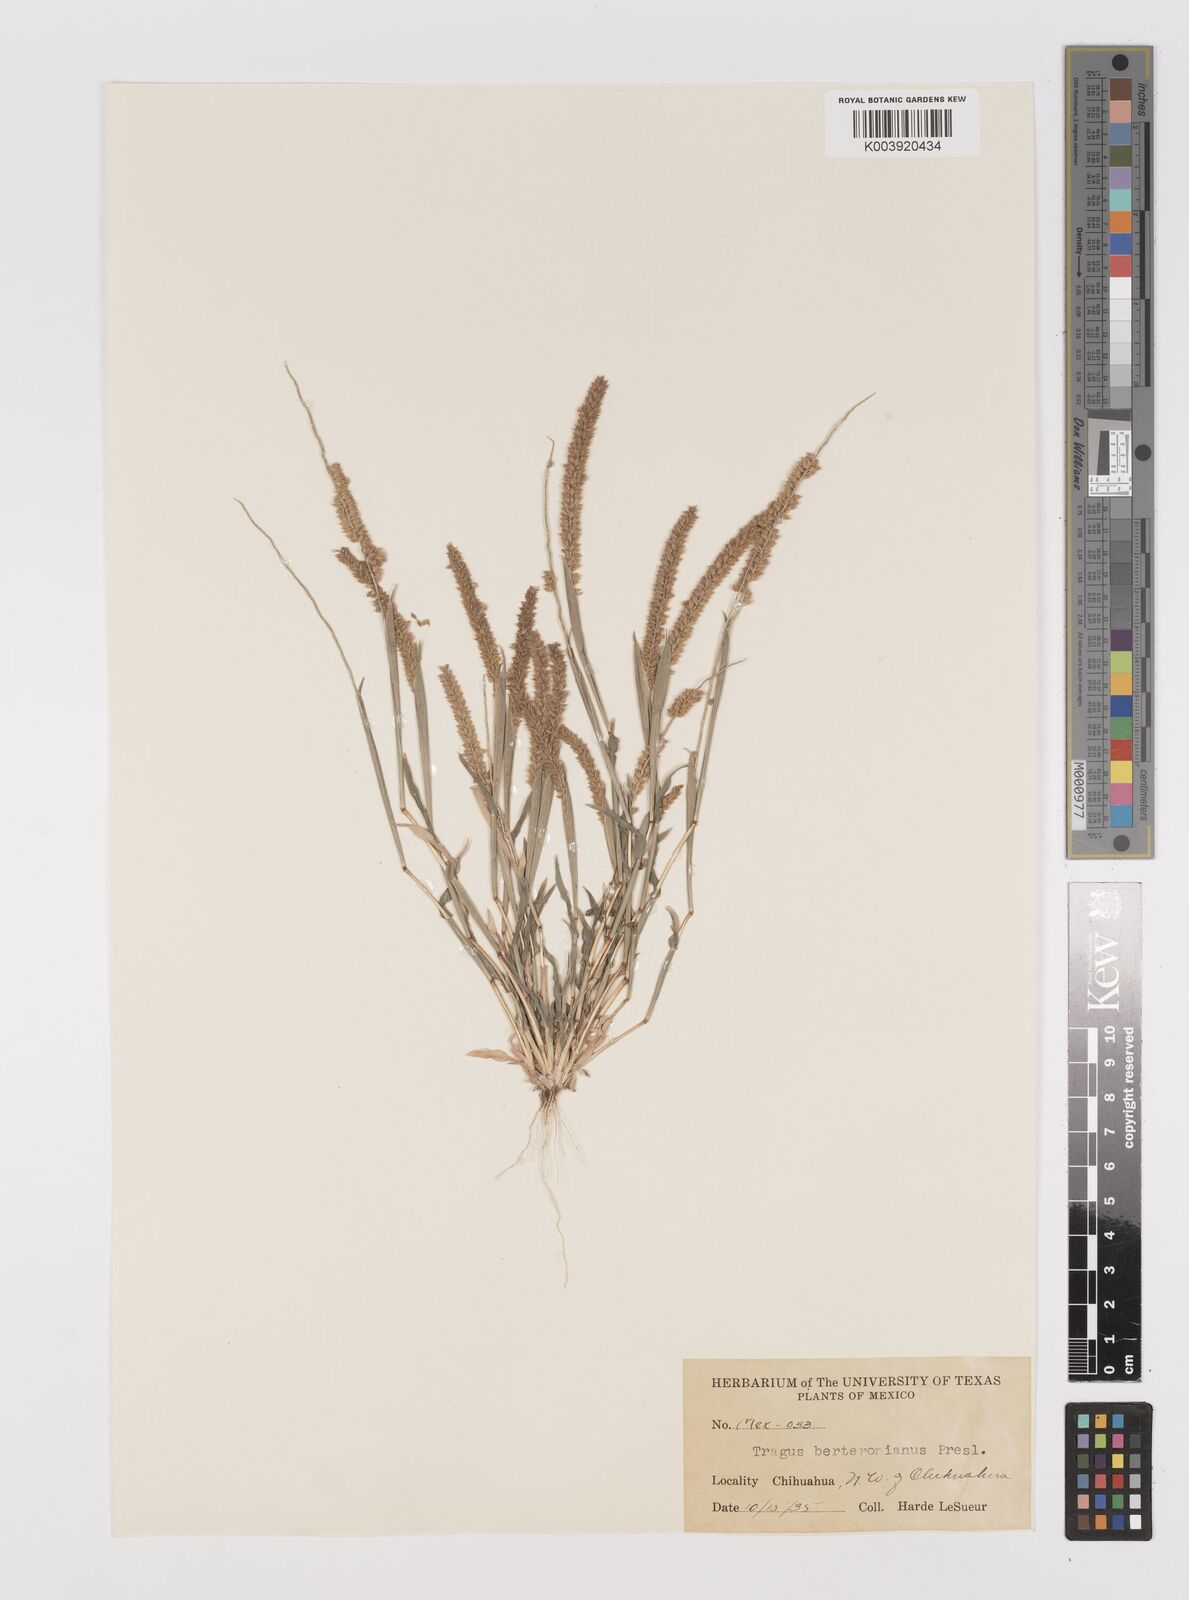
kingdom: Plantae
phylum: Tracheophyta
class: Liliopsida
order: Poales
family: Poaceae
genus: Tragus
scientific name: Tragus berteronianus
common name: African bur-grass
